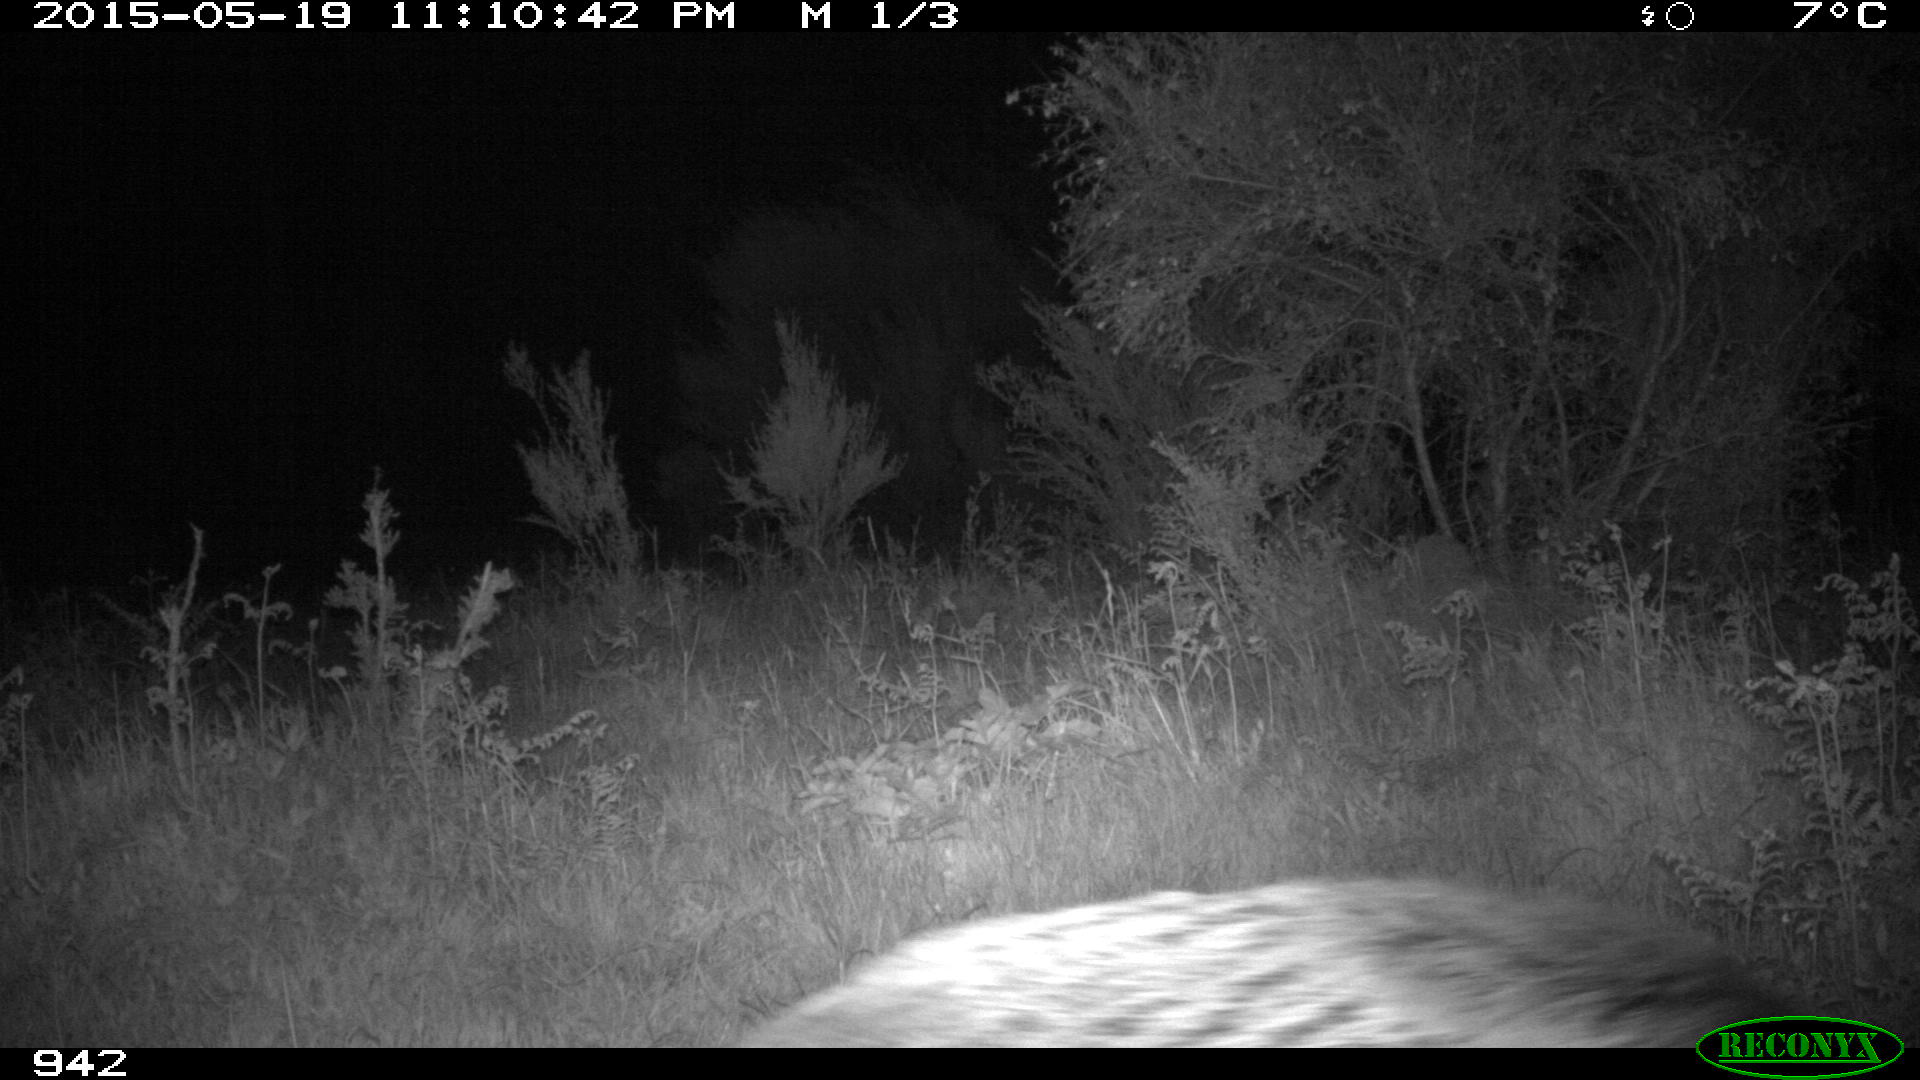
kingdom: Animalia
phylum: Chordata
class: Mammalia
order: Artiodactyla
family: Suidae
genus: Sus
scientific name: Sus scrofa
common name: Wild boar
